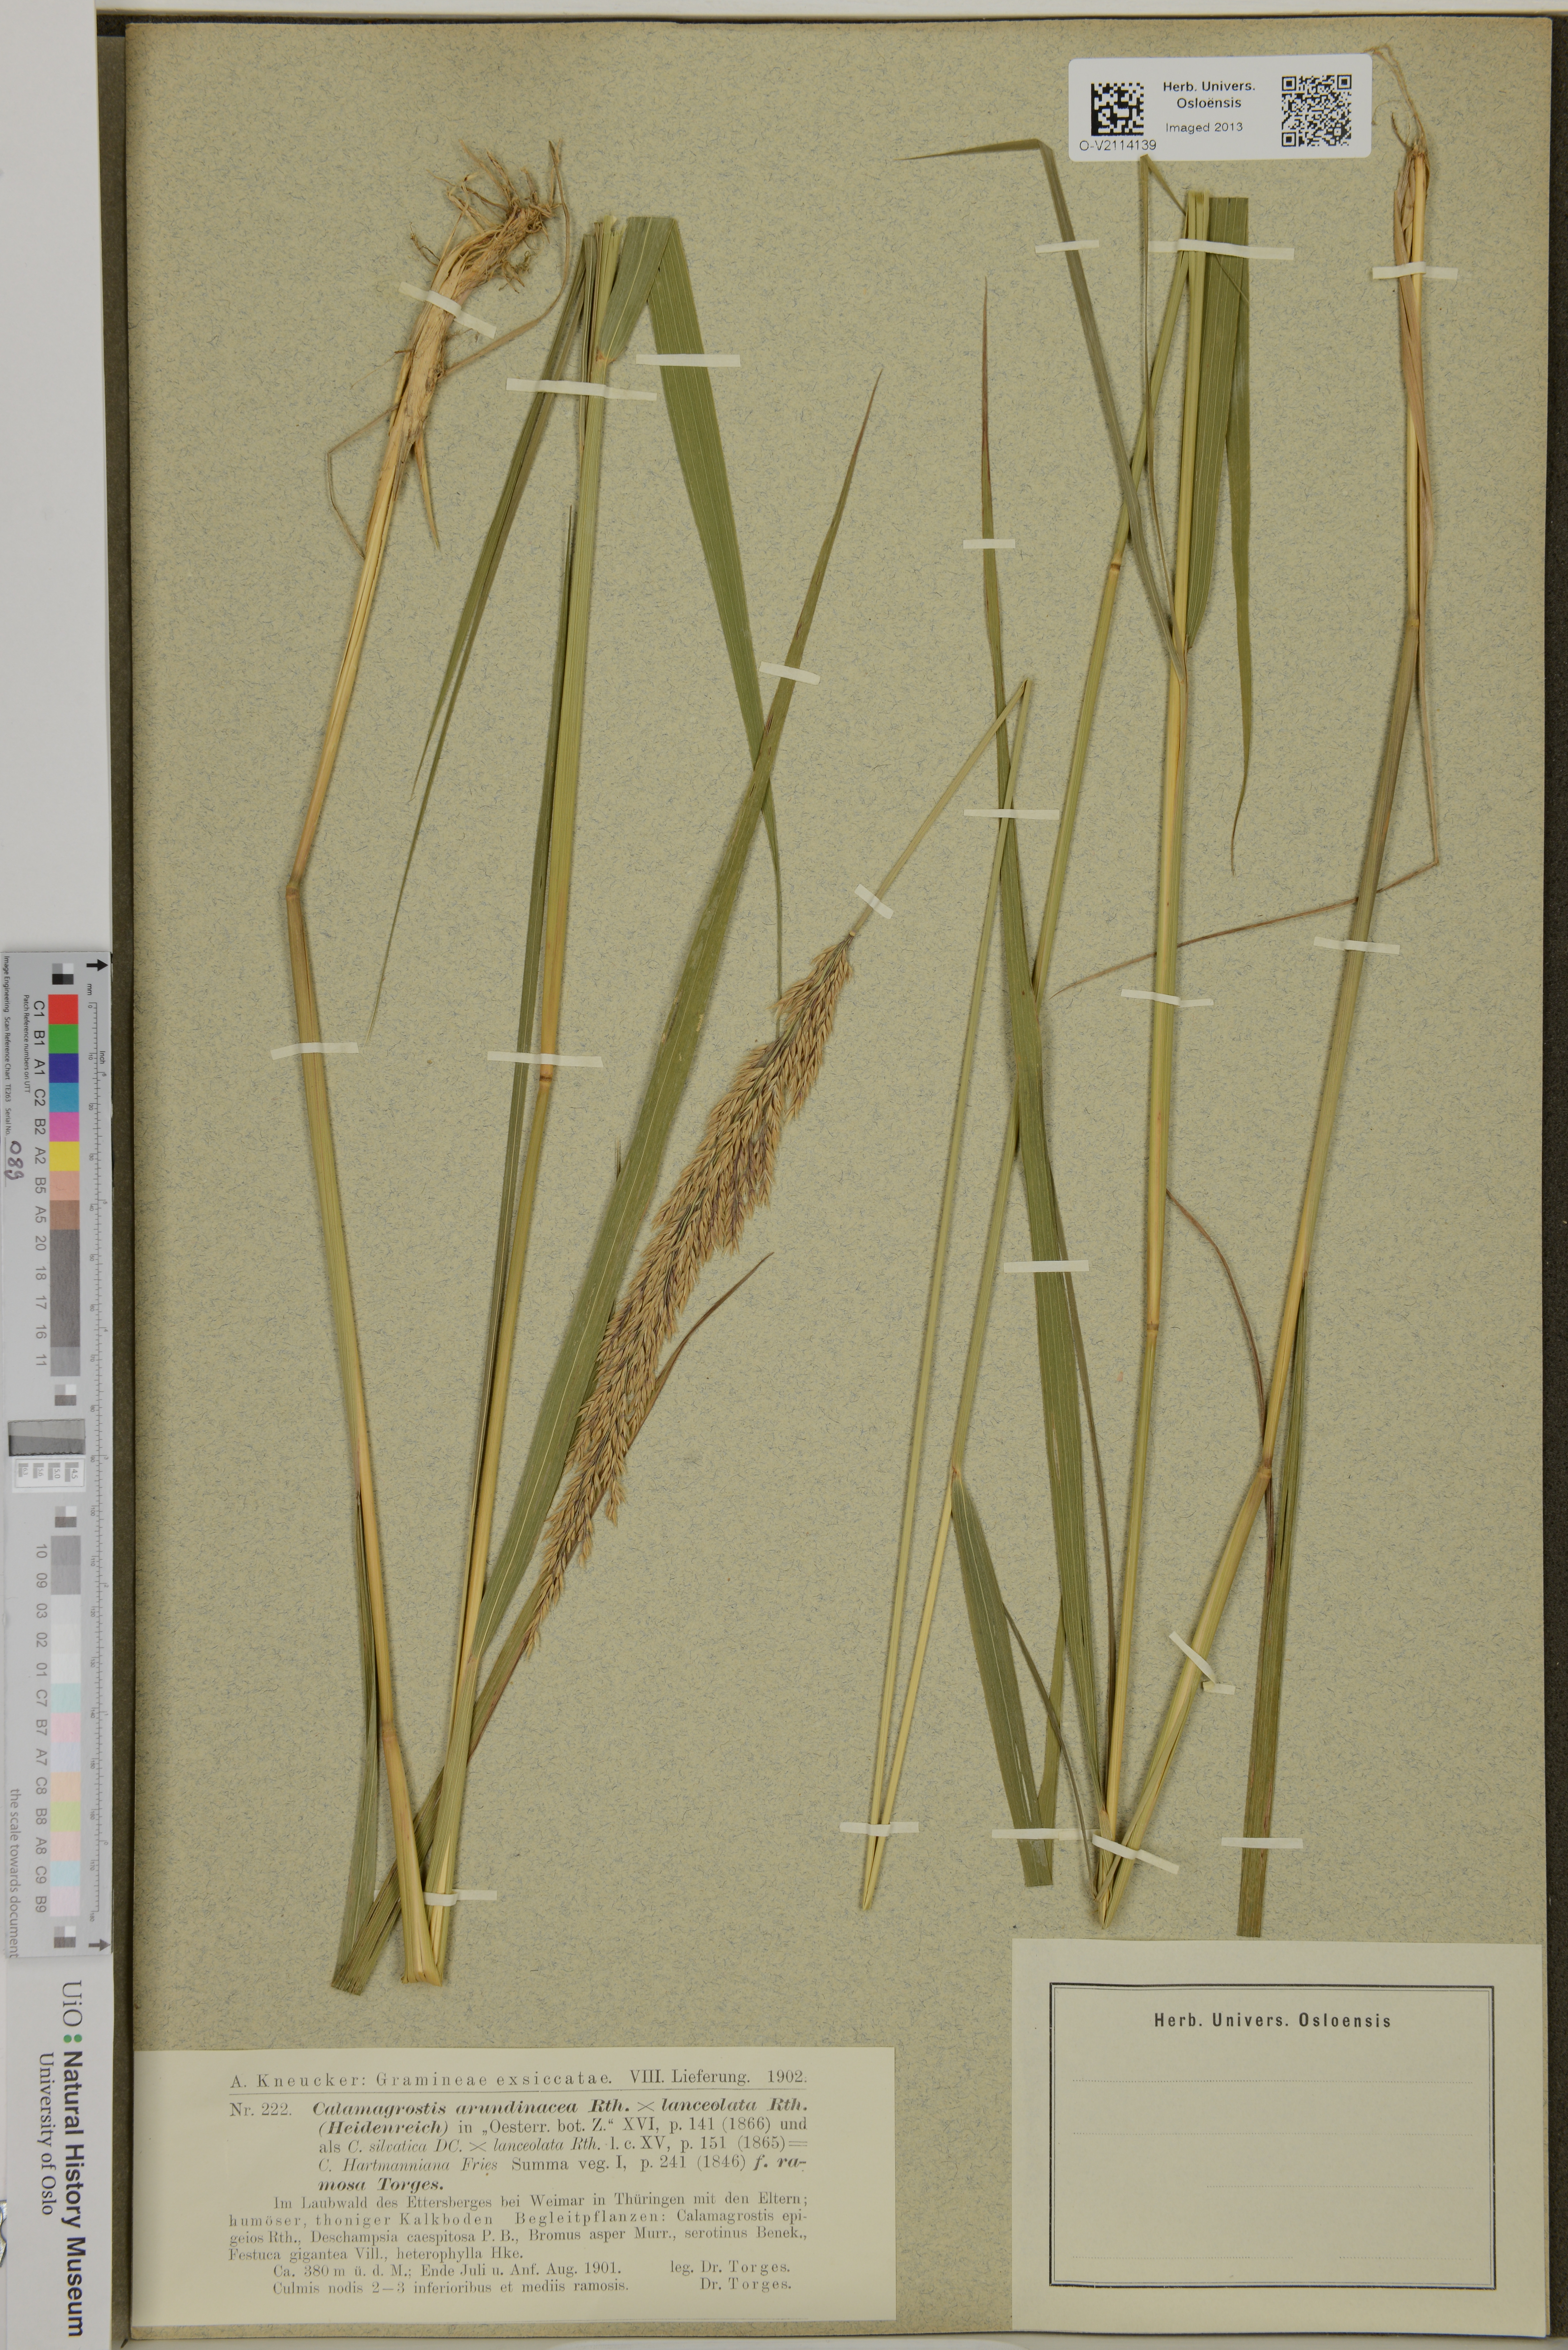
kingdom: Plantae
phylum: Tracheophyta
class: Liliopsida
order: Poales
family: Poaceae
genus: Calamagrostis
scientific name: Calamagrostis arundinacea
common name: Metskastik
